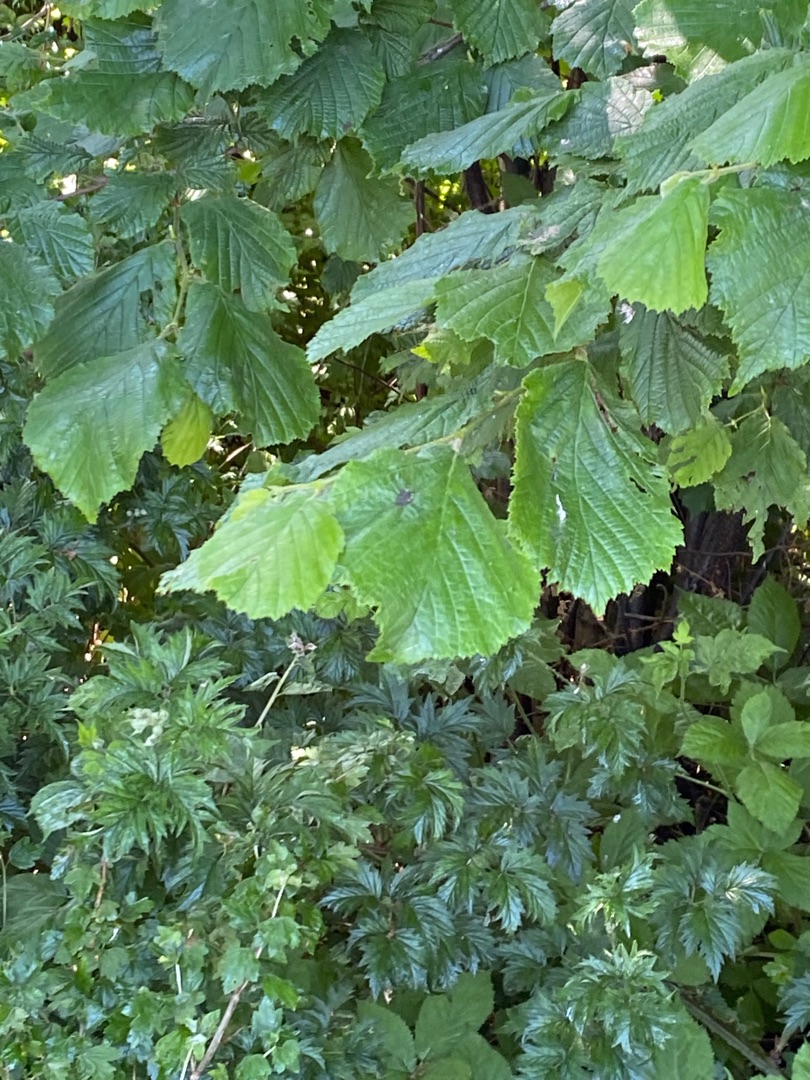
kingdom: Plantae
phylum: Tracheophyta
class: Magnoliopsida
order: Fagales
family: Betulaceae
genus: Corylus
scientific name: Corylus avellana
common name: Hassel
